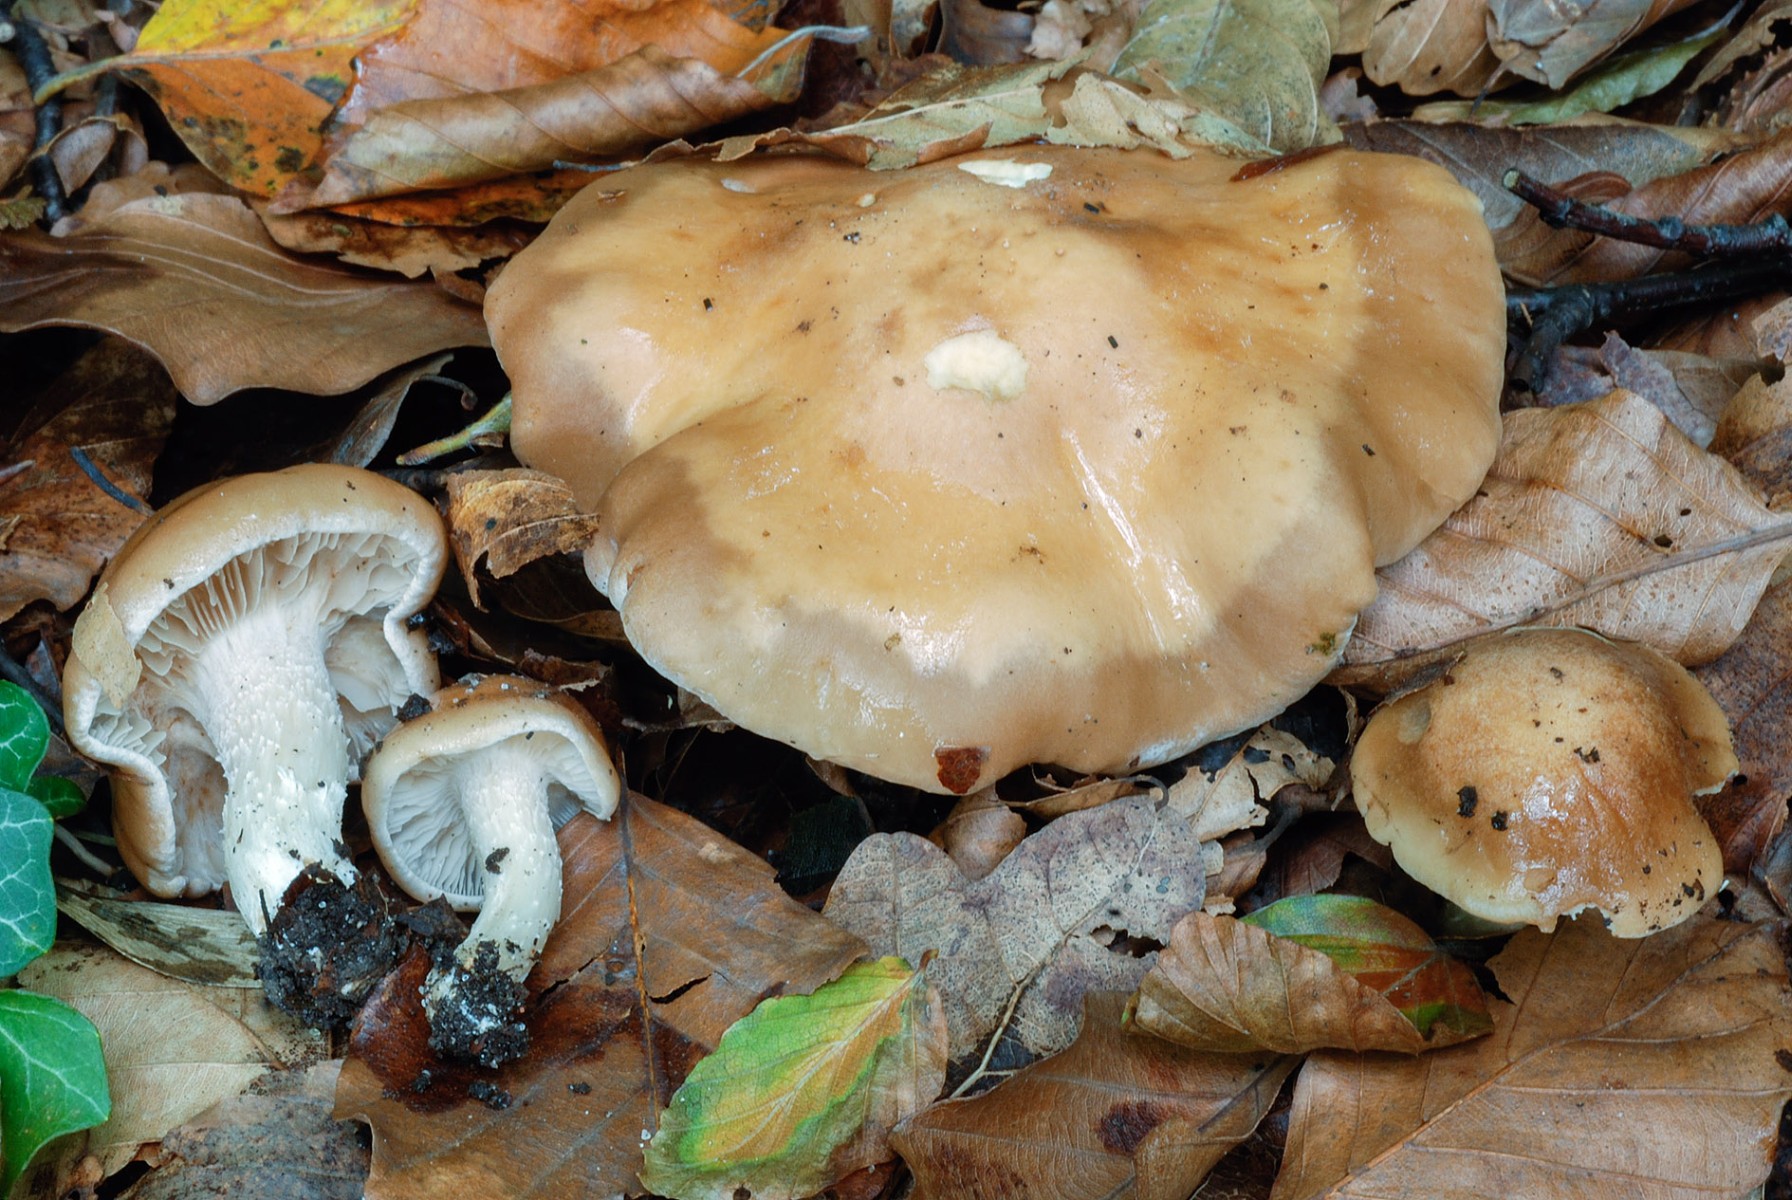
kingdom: Fungi
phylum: Basidiomycota
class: Agaricomycetes
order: Agaricales
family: Hymenogastraceae
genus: Hebeloma
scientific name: Hebeloma vesterholtii
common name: Vesterholts tåreblad
